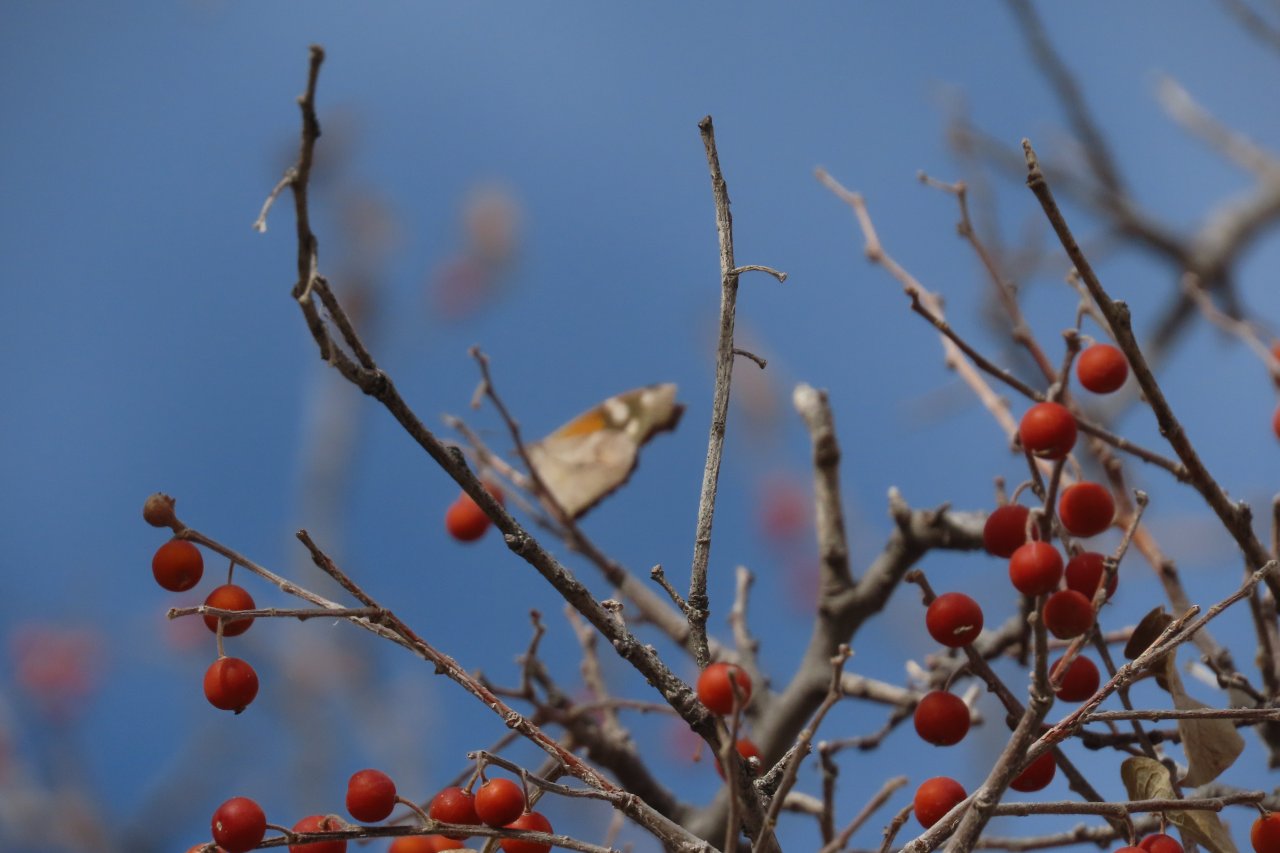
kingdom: Animalia
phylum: Arthropoda
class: Insecta
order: Lepidoptera
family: Nymphalidae
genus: Libytheana
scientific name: Libytheana carinenta
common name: American Snout
